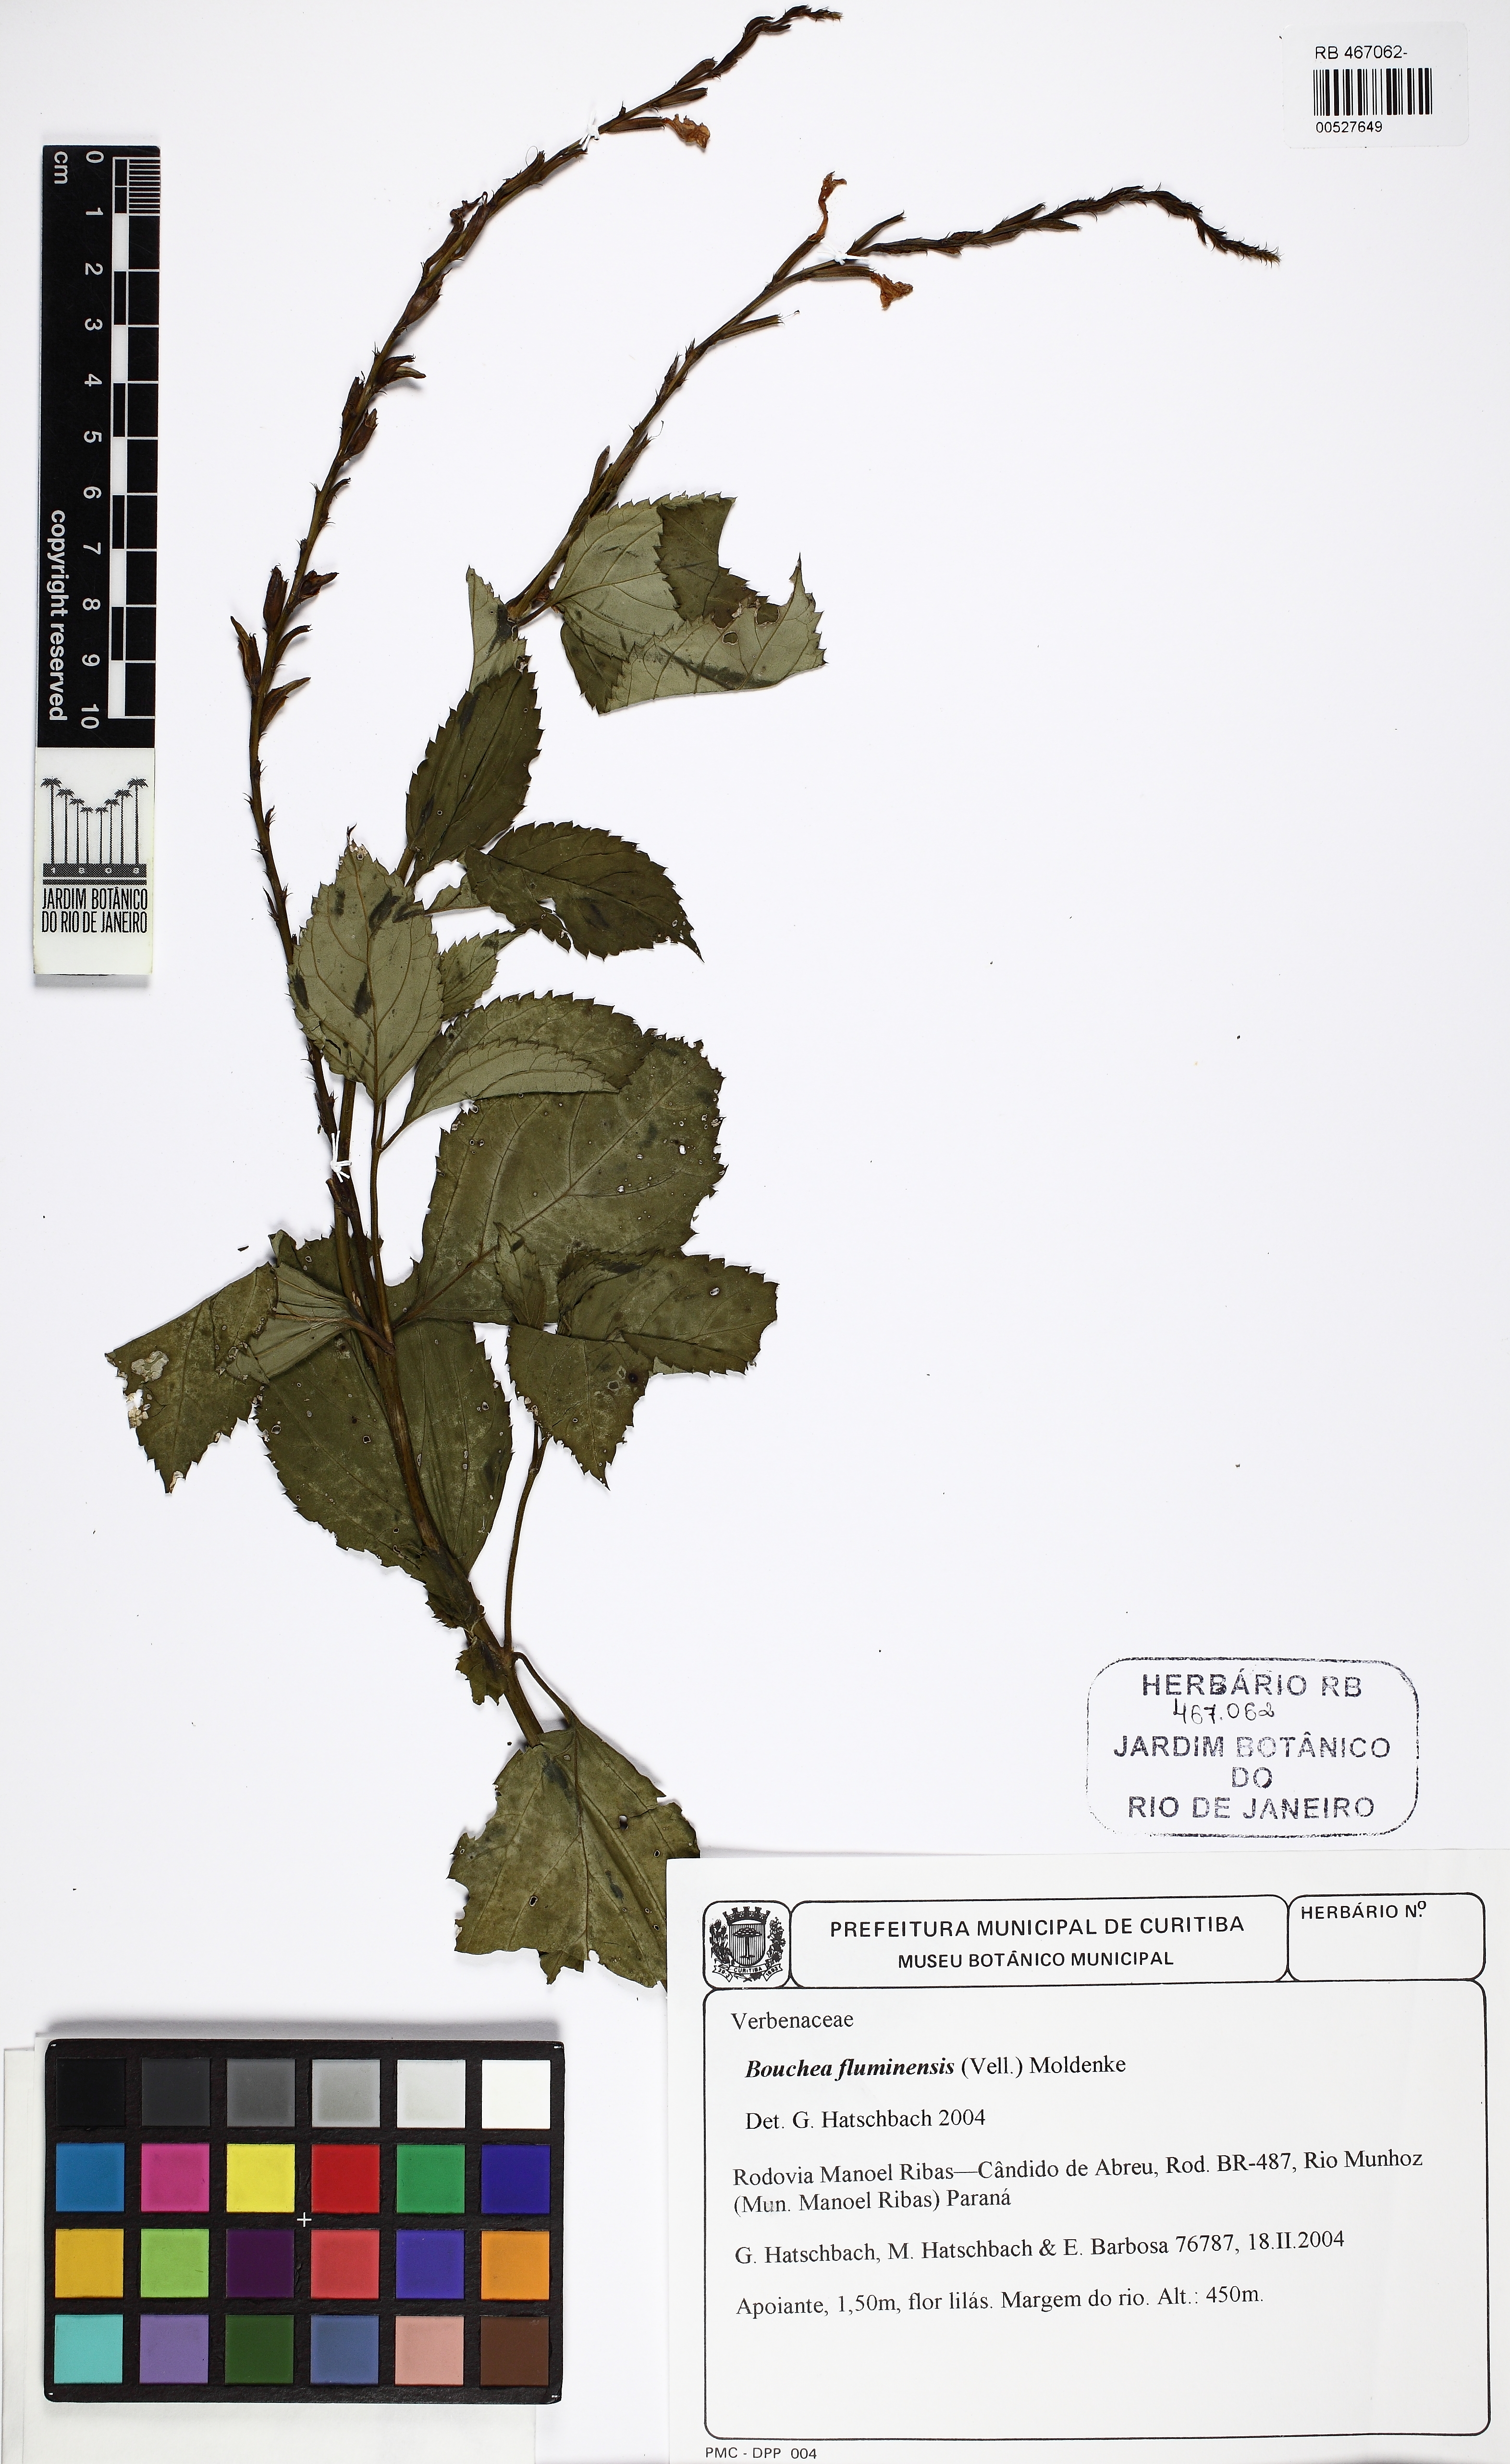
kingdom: Plantae
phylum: Tracheophyta
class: Magnoliopsida
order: Lamiales
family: Verbenaceae
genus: Bouchea
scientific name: Bouchea pseudogervao
